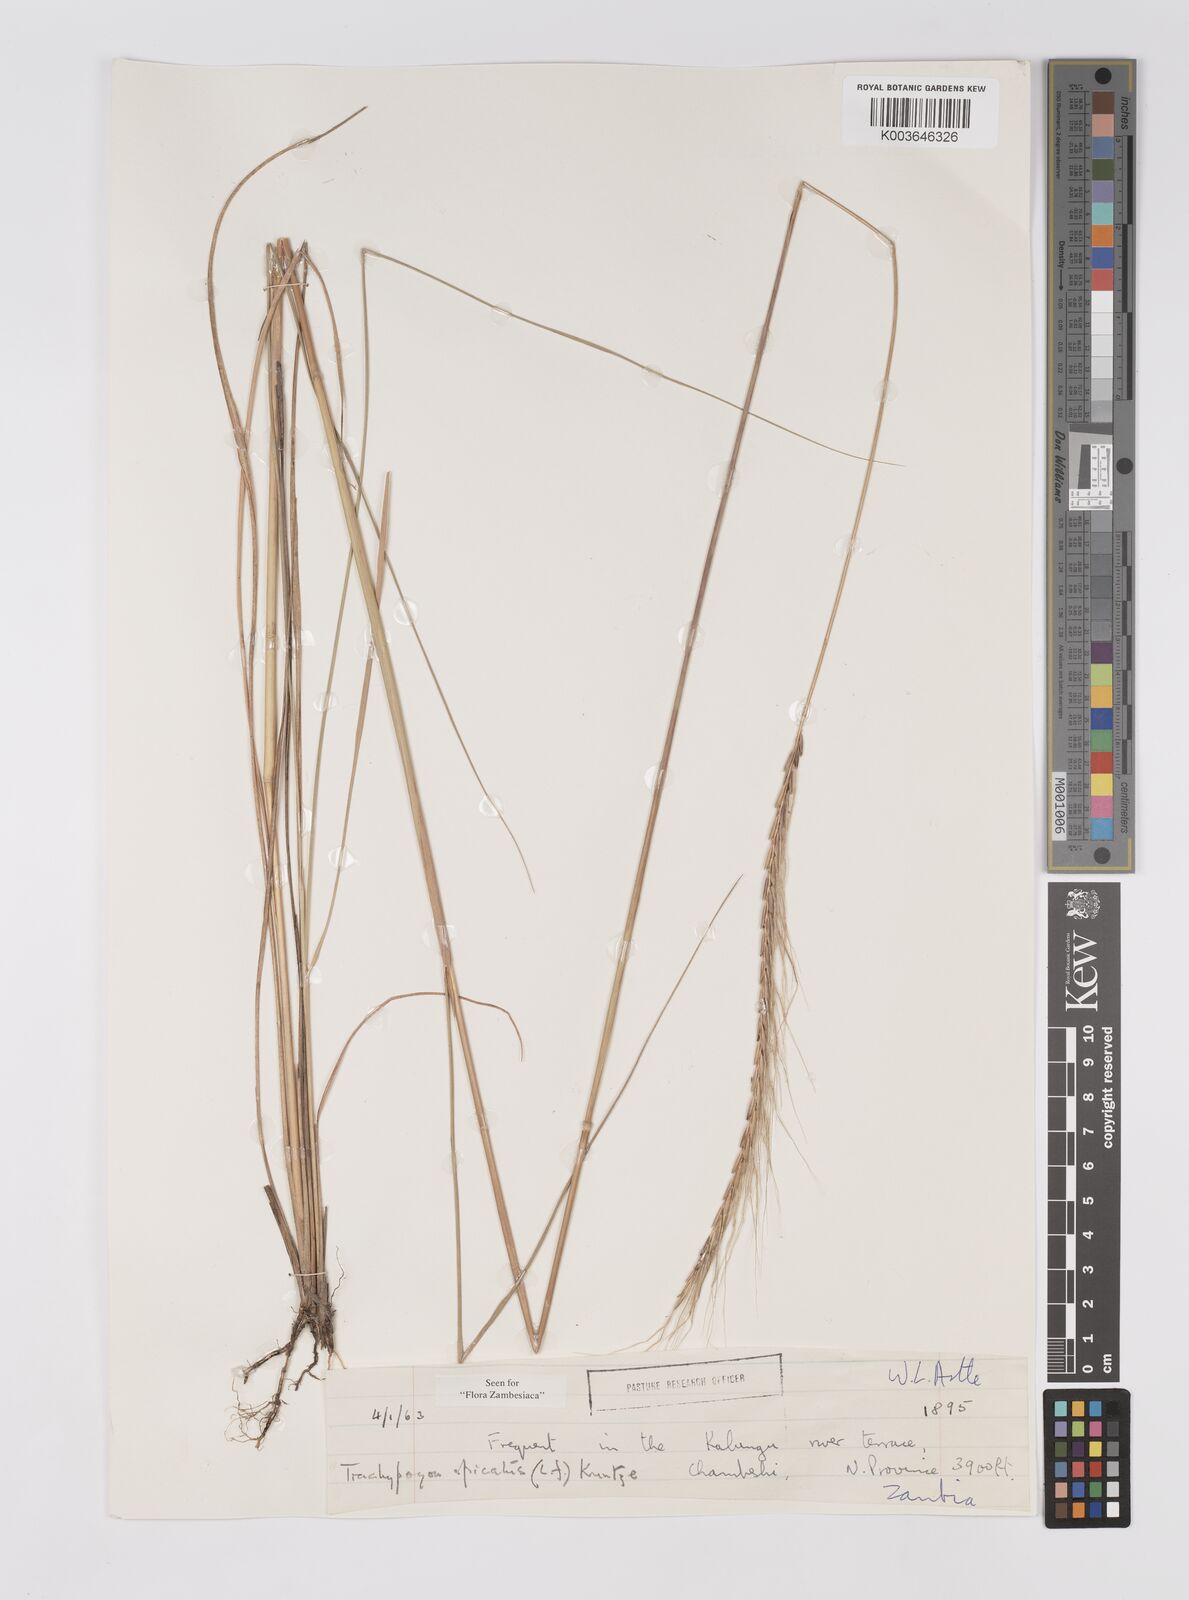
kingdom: Plantae
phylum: Tracheophyta
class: Liliopsida
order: Poales
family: Poaceae
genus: Trachypogon
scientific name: Trachypogon spicatus
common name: Crinkle-awn
